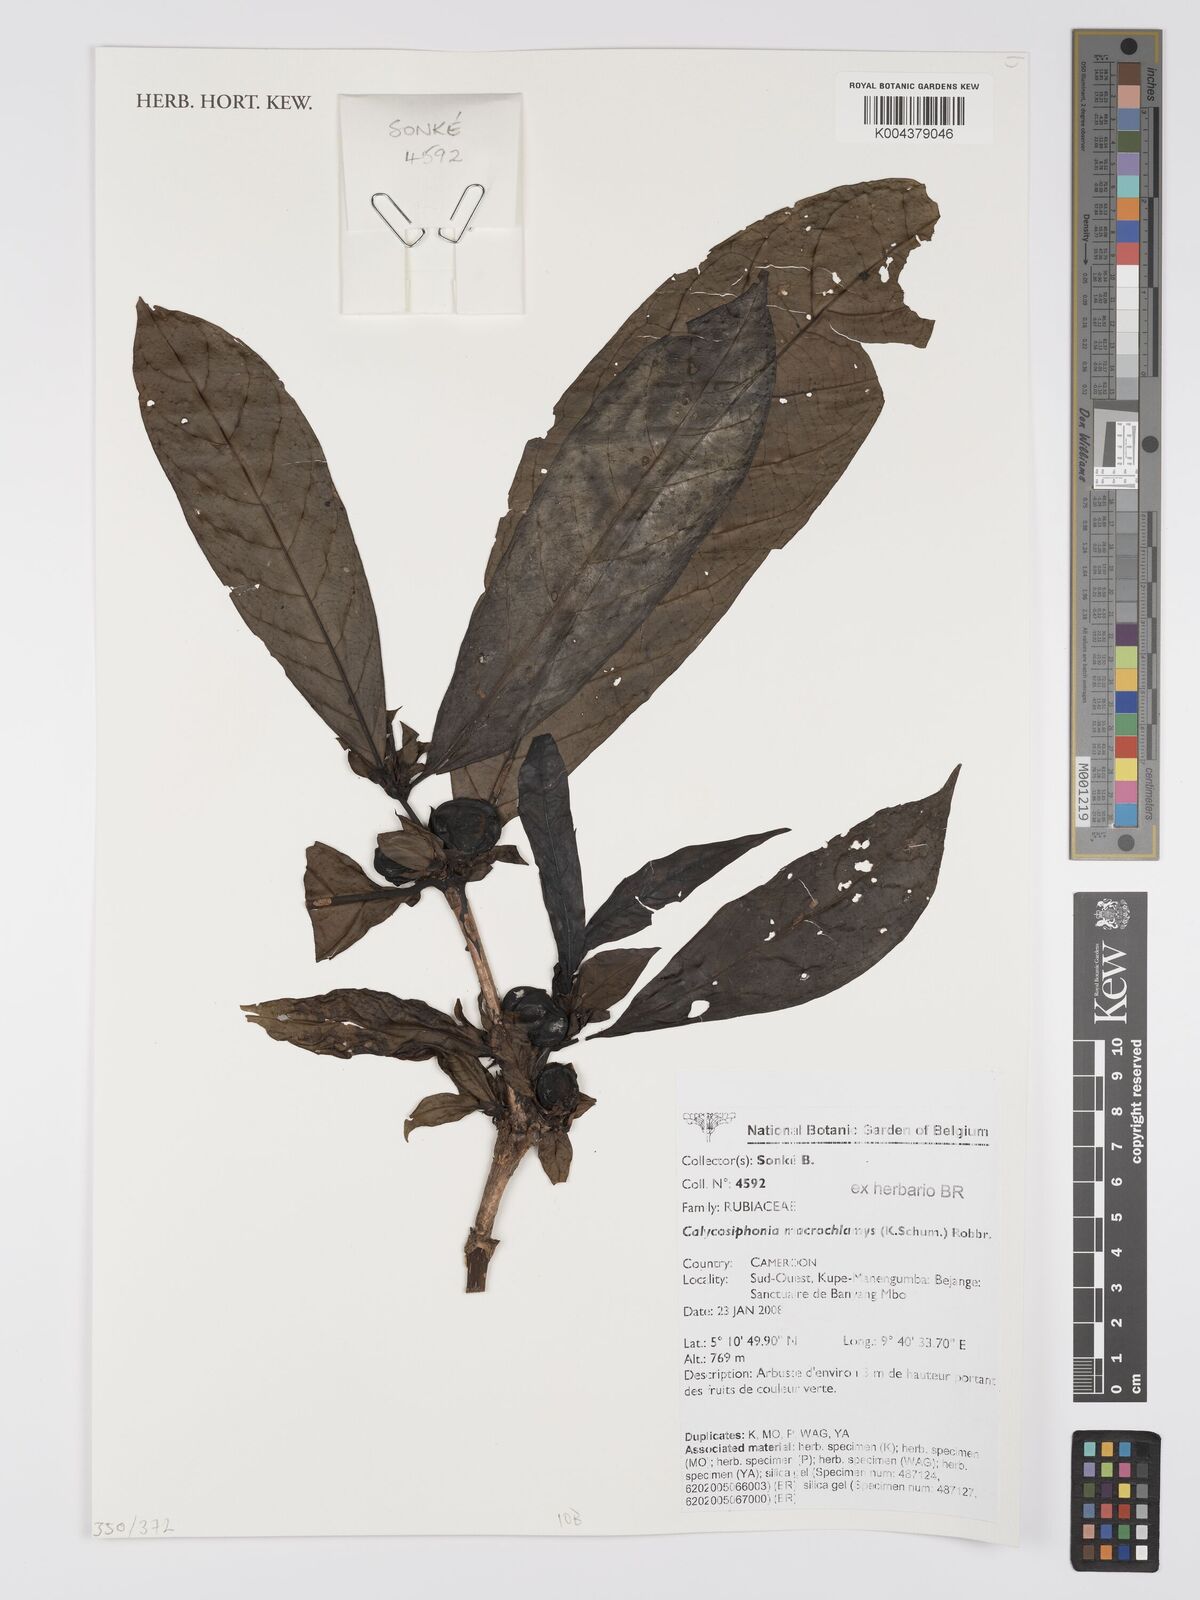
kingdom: Plantae
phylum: Tracheophyta
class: Magnoliopsida
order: Gentianales
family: Rubiaceae
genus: Calycosiphonia
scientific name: Calycosiphonia macrochlamys
